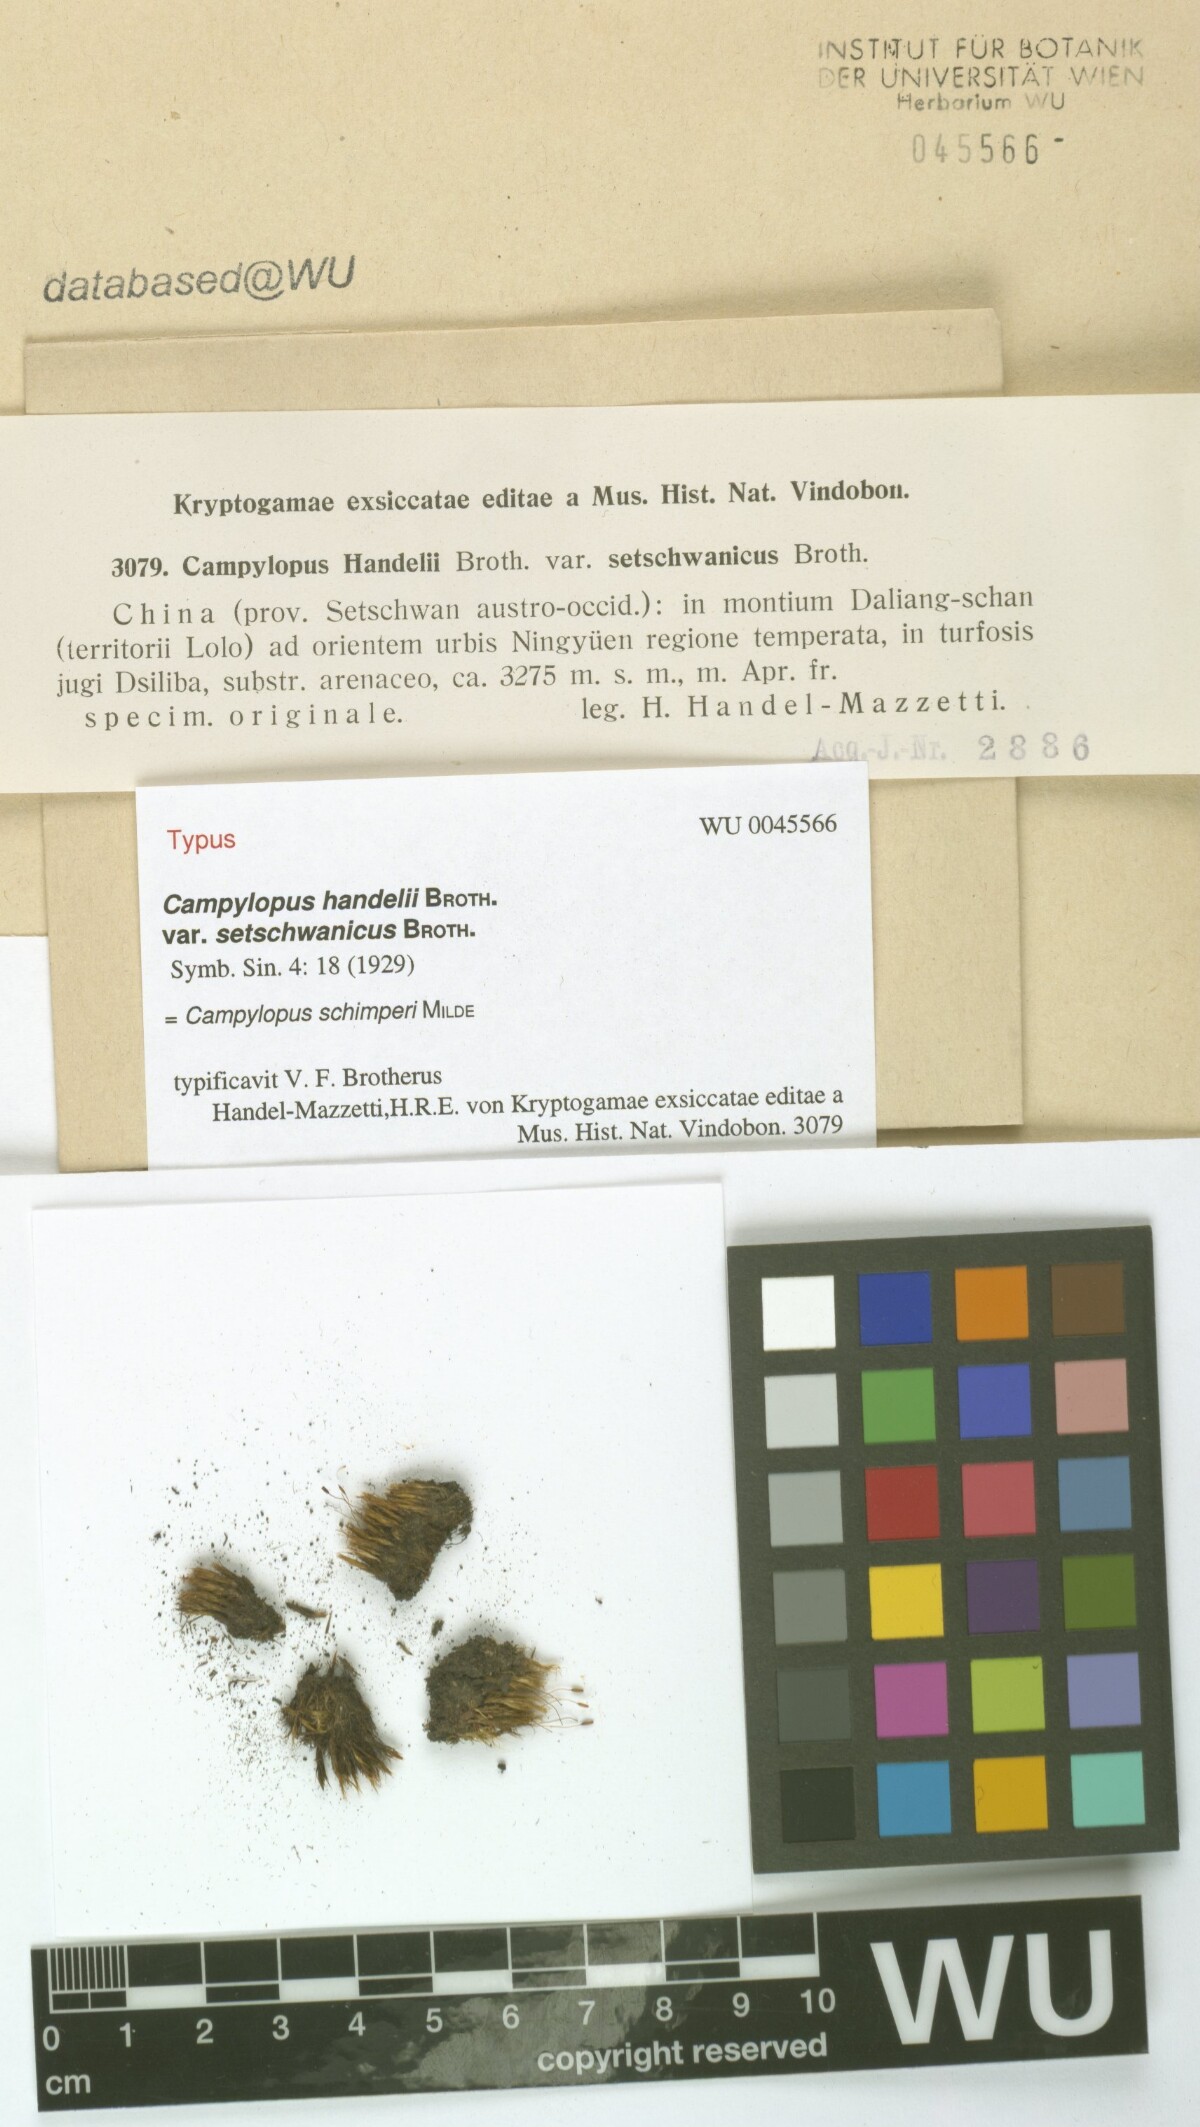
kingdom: Plantae
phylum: Bryophyta
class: Bryopsida
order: Dicranales
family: Leucobryaceae
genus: Campylopus
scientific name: Campylopus schimperi
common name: Schimper's swan-neck moss
